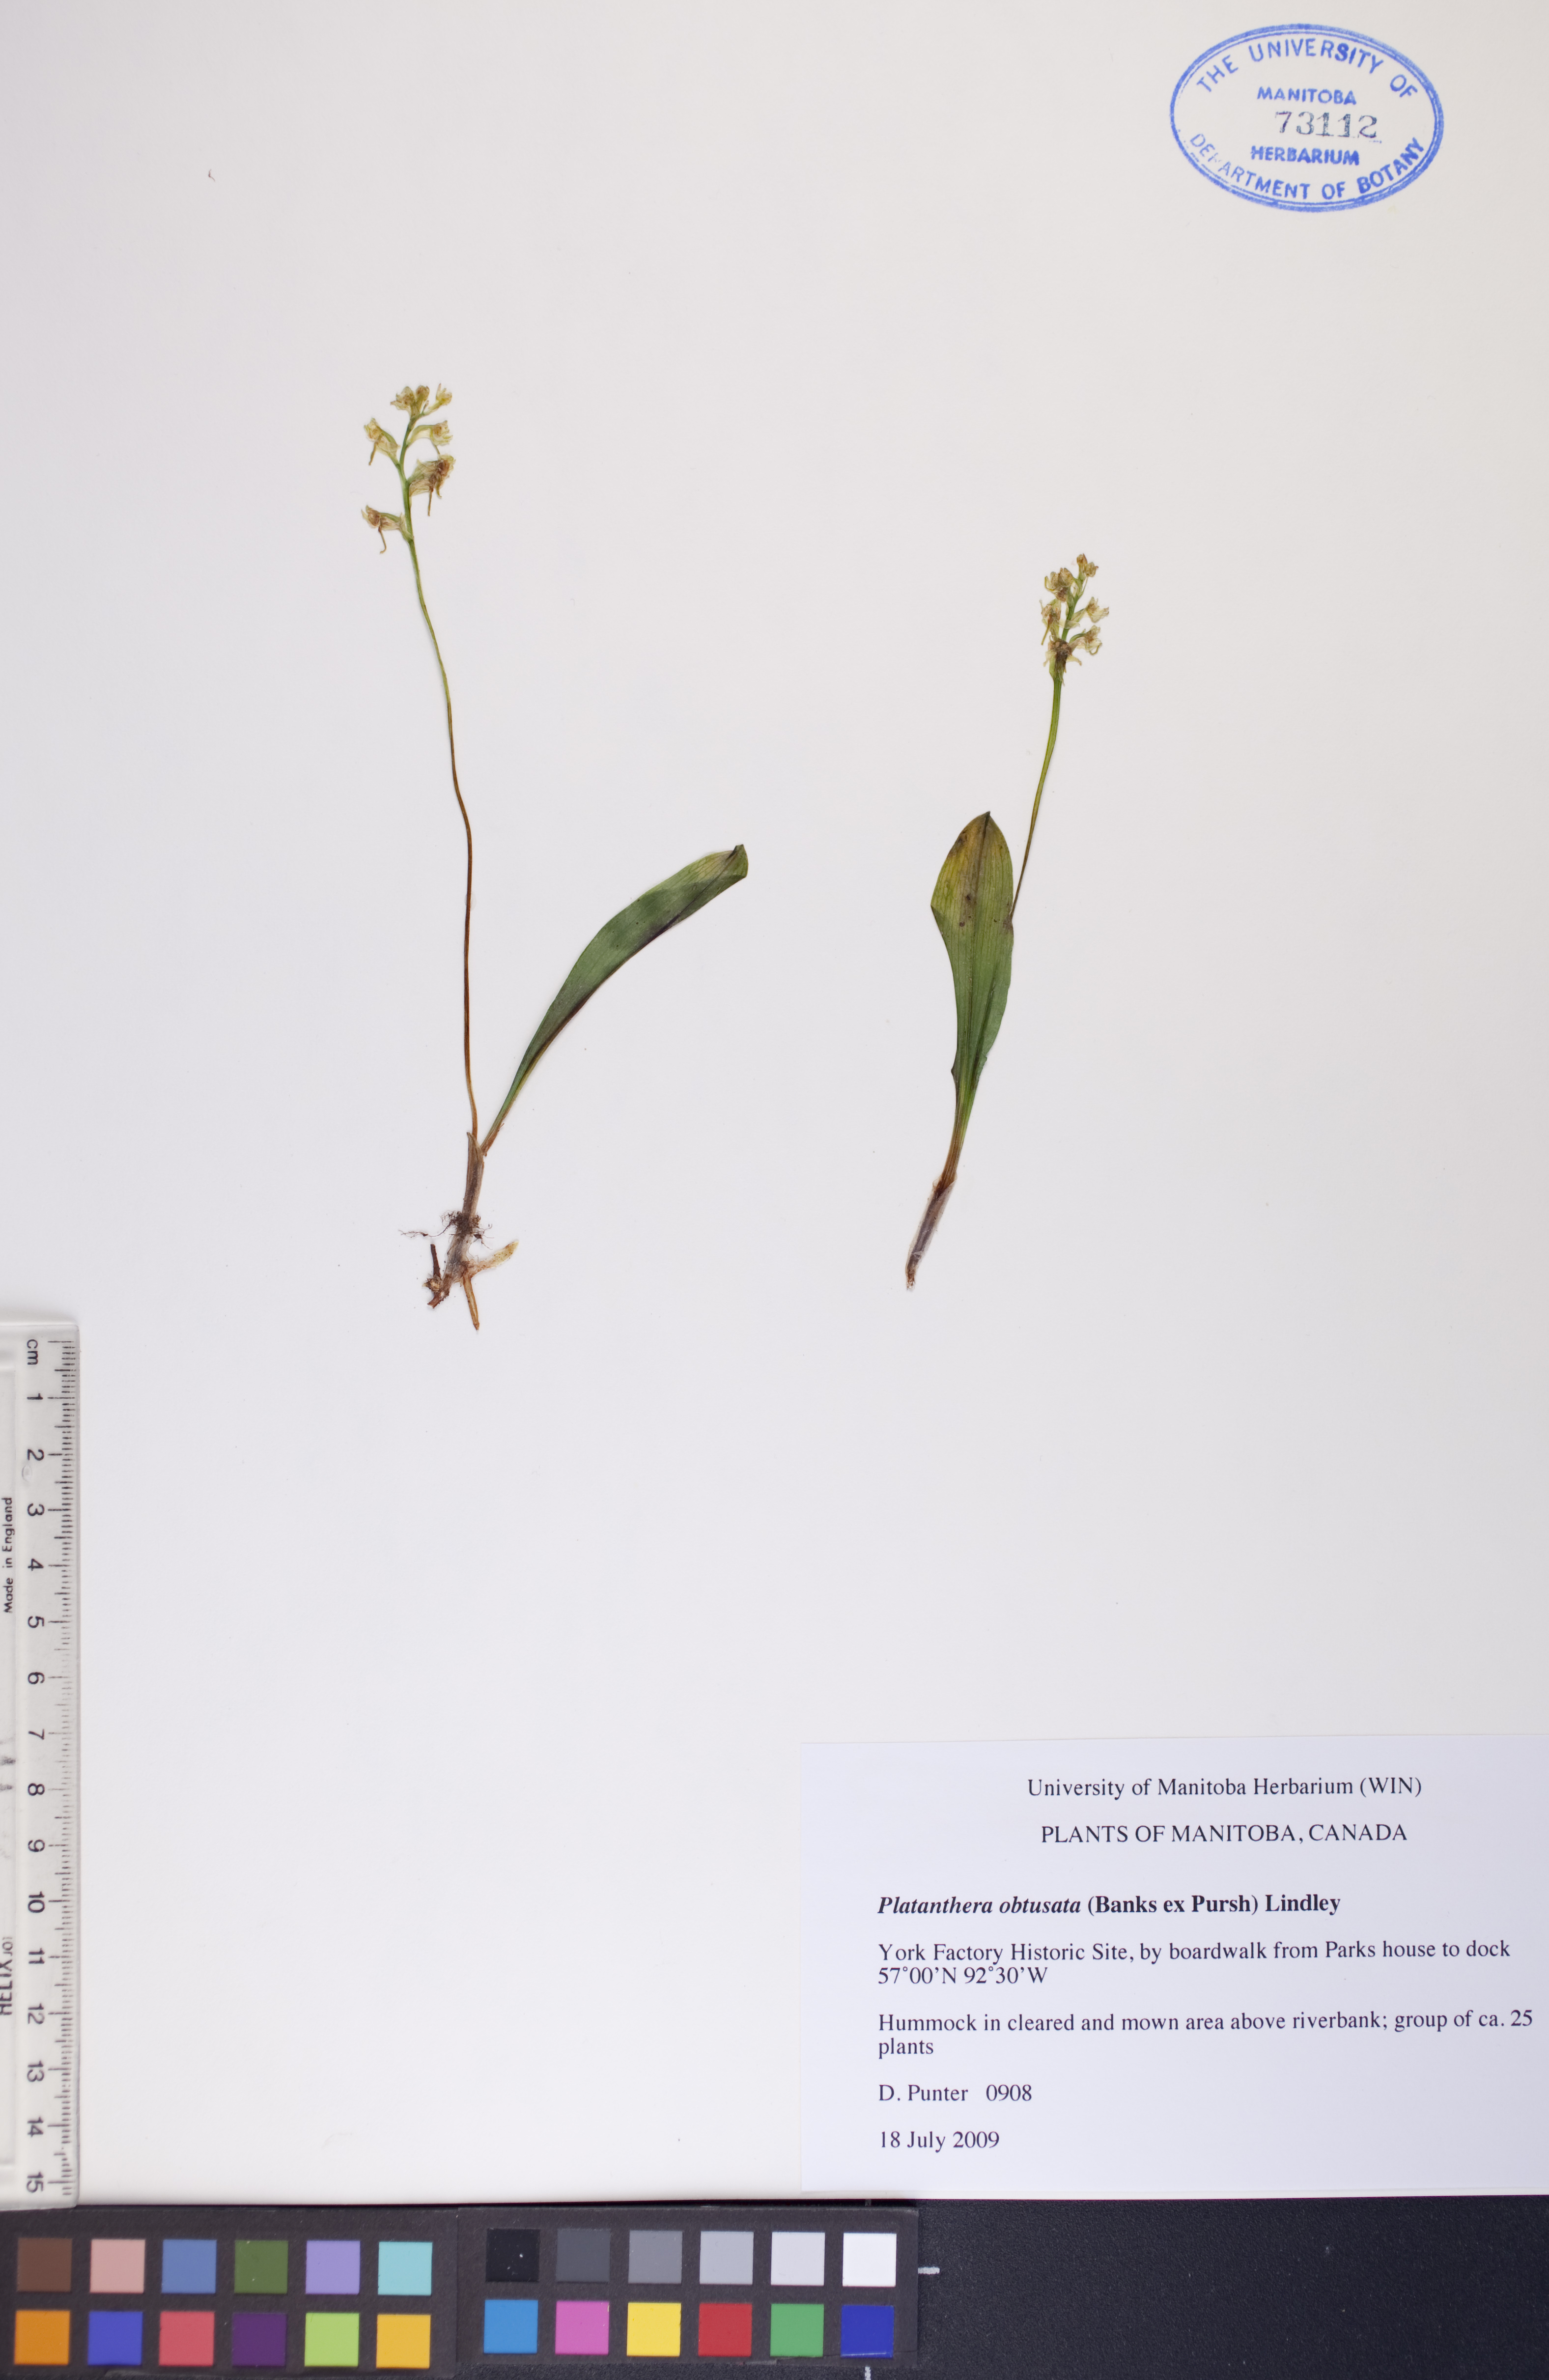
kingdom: Plantae
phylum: Tracheophyta
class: Liliopsida
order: Asparagales
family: Orchidaceae
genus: Platanthera
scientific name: Platanthera obtusata
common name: Blunt bog orchid
